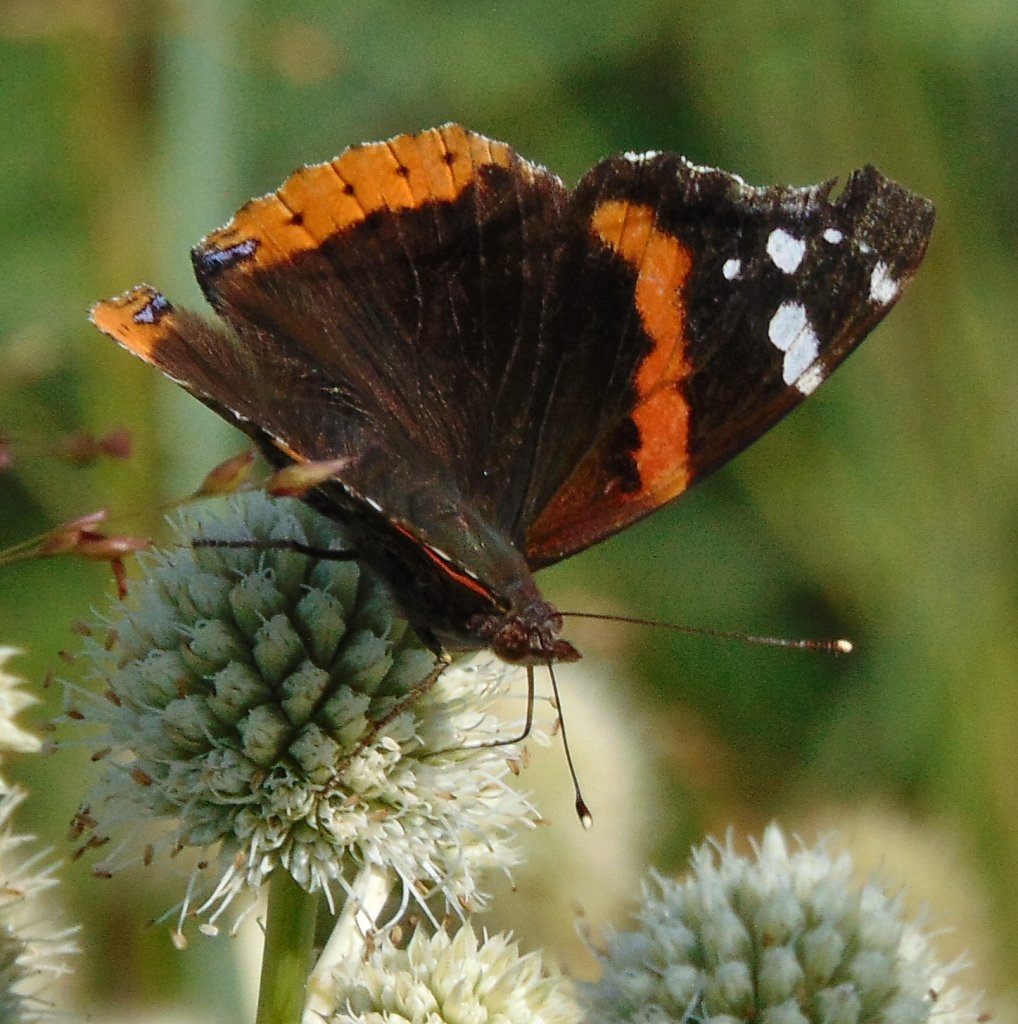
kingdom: Animalia
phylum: Arthropoda
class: Insecta
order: Lepidoptera
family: Nymphalidae
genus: Vanessa
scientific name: Vanessa atalanta
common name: Red Admiral
